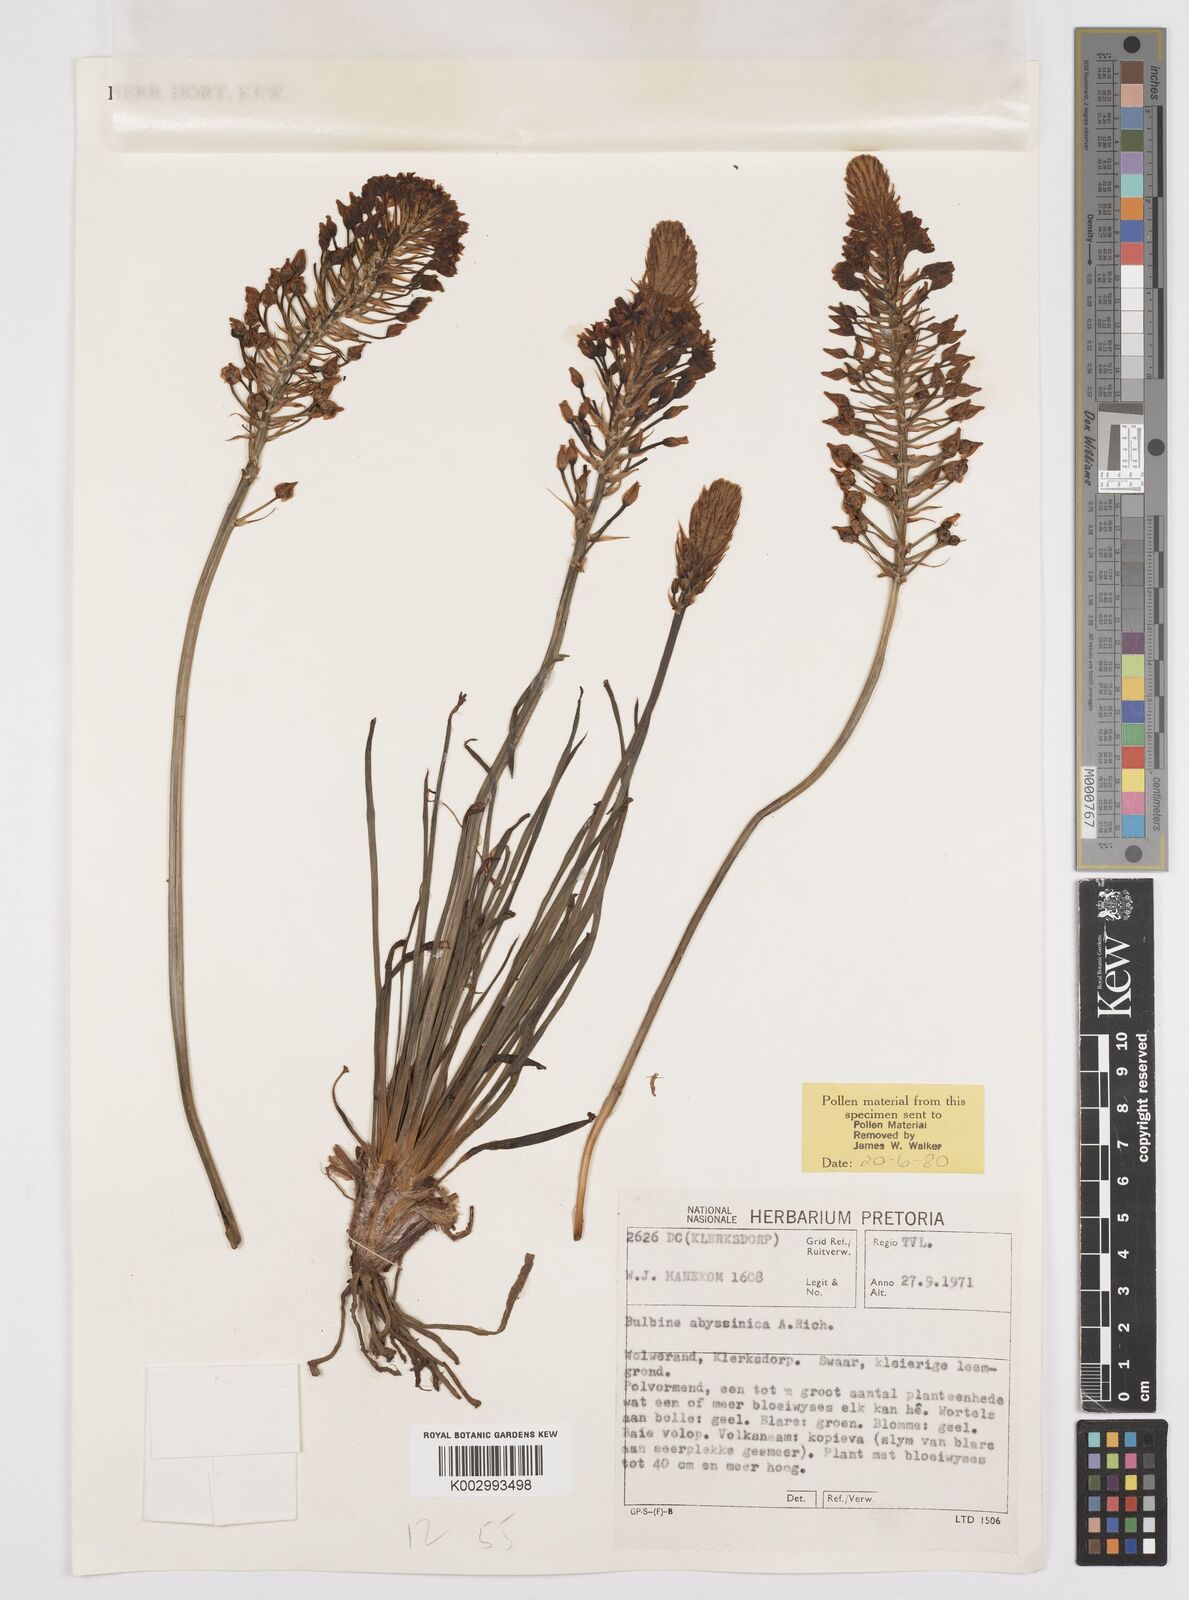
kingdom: Plantae
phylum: Tracheophyta
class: Liliopsida
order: Asparagales
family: Asphodelaceae
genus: Bulbine
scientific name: Bulbine abyssinica
